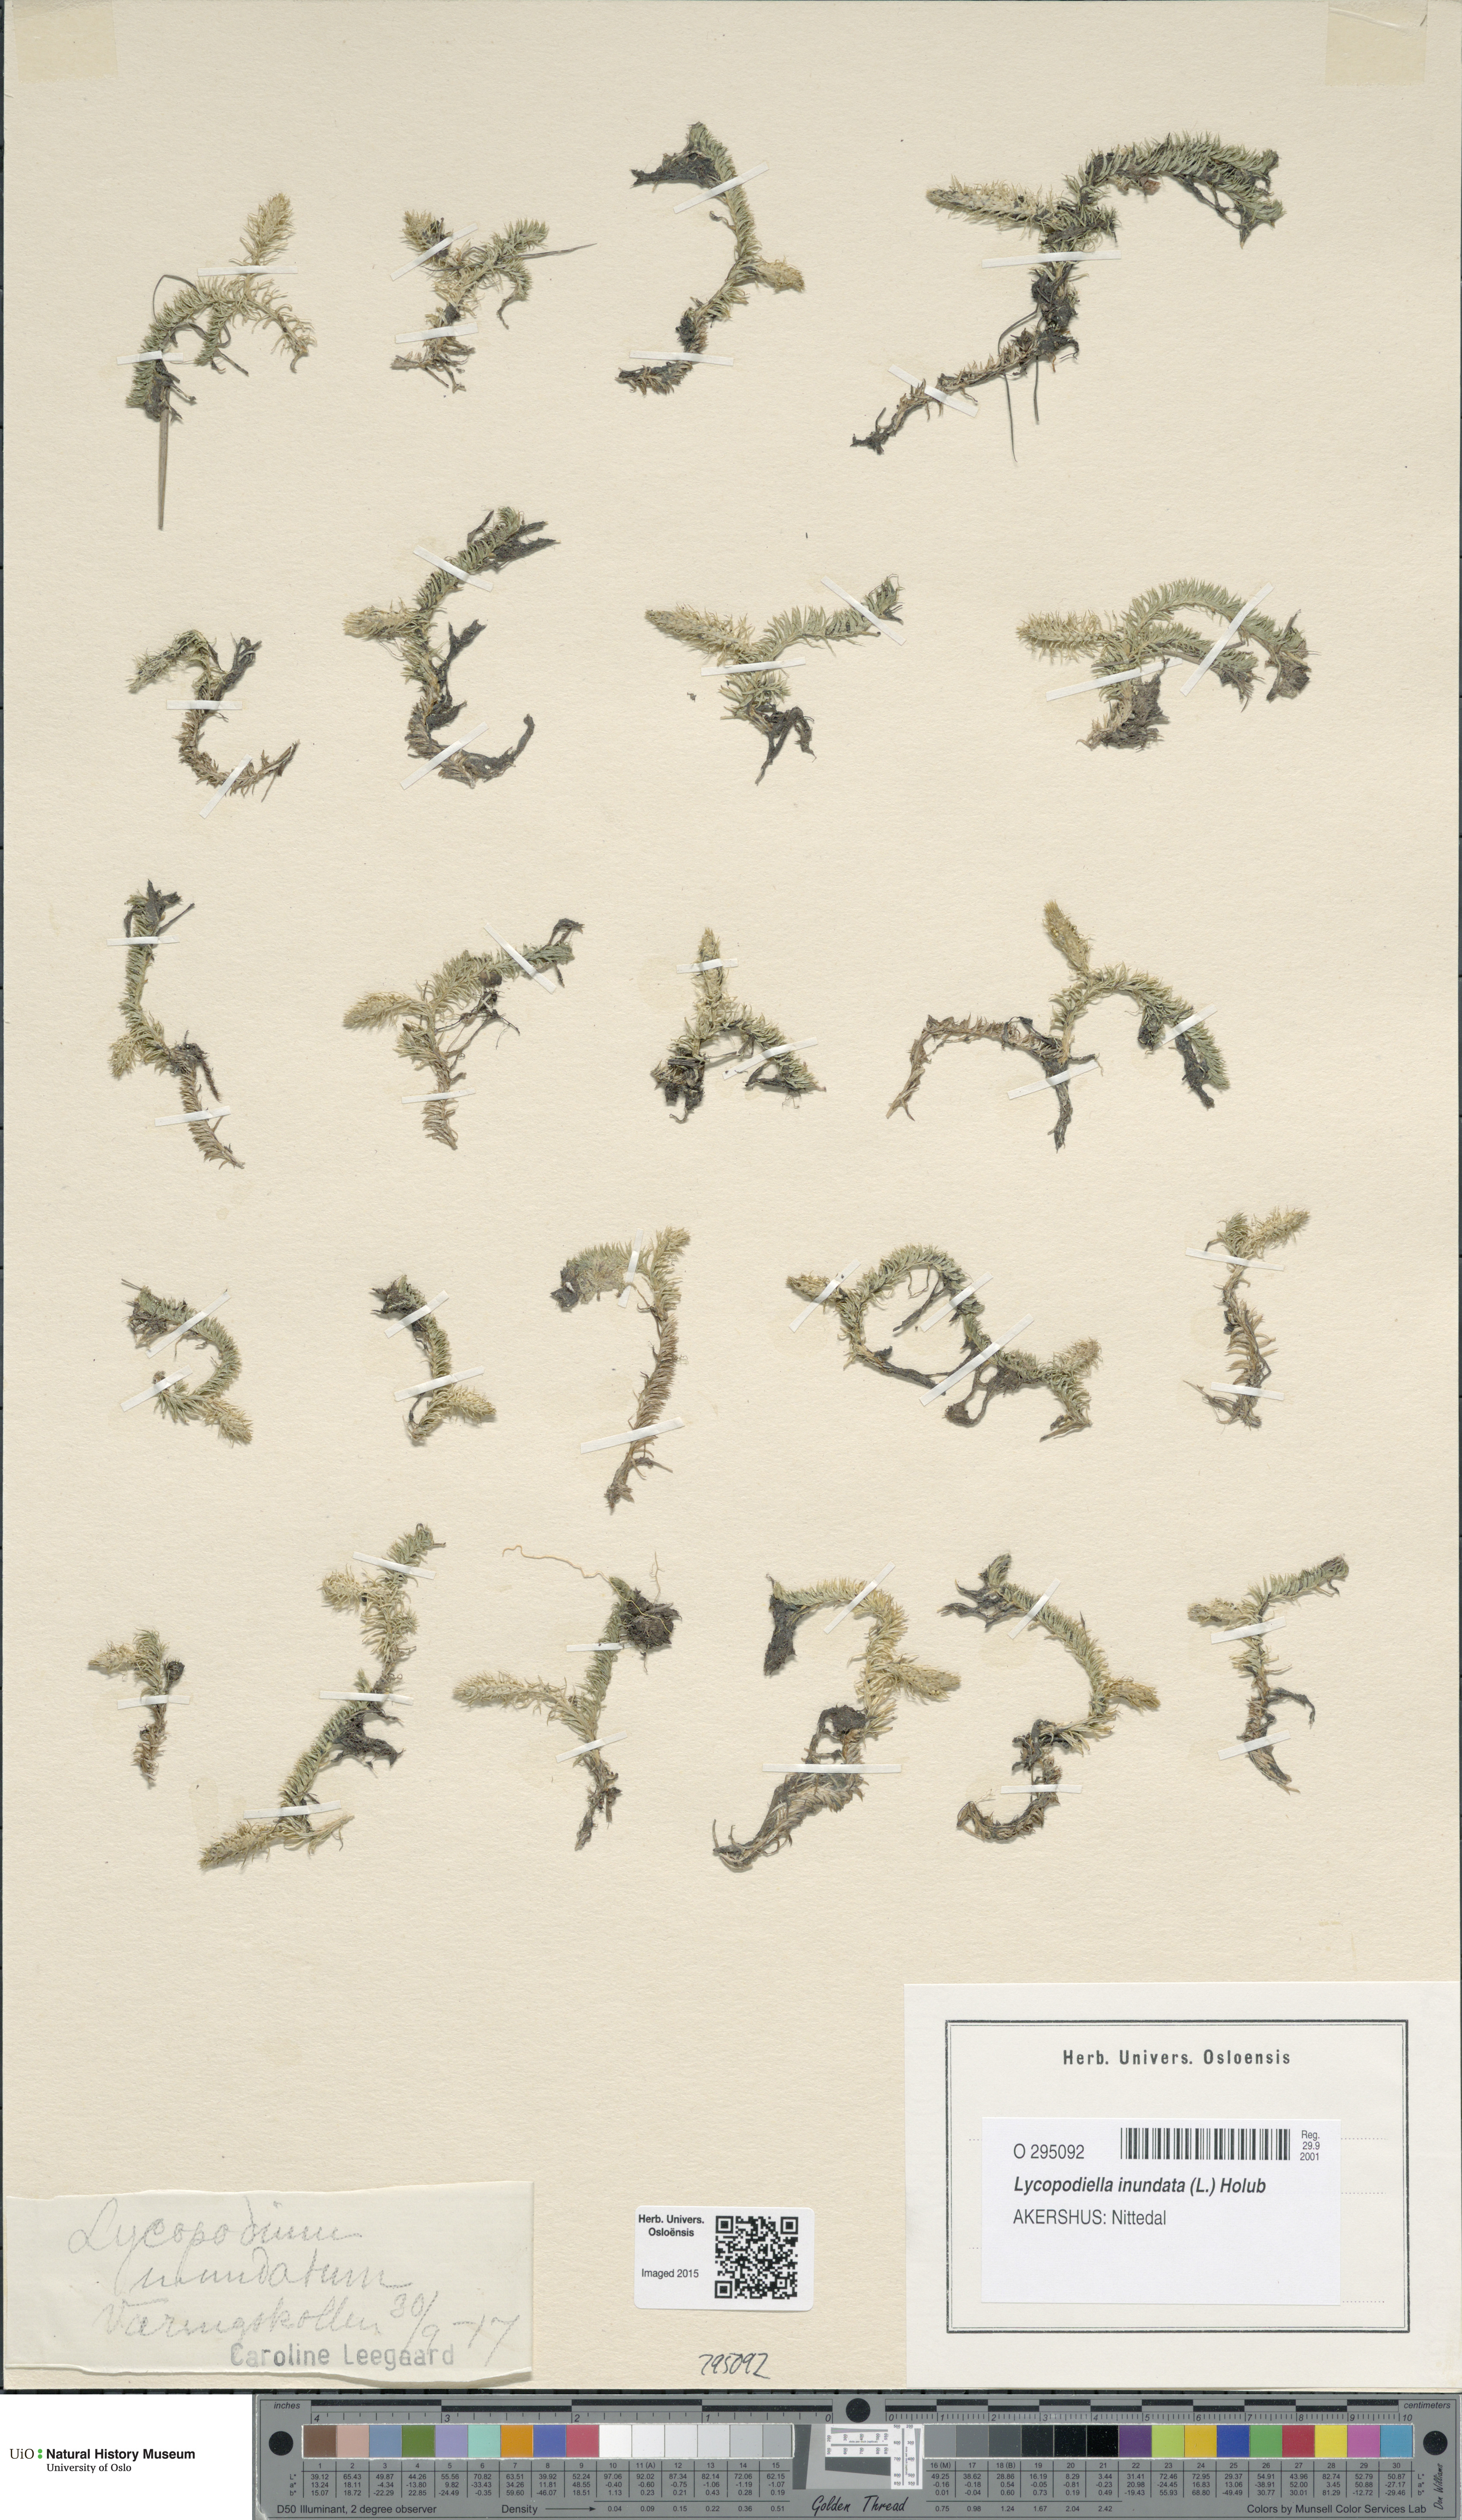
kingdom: Plantae
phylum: Tracheophyta
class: Lycopodiopsida
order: Lycopodiales
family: Lycopodiaceae
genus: Lycopodiella
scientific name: Lycopodiella inundata
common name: Marsh clubmoss
